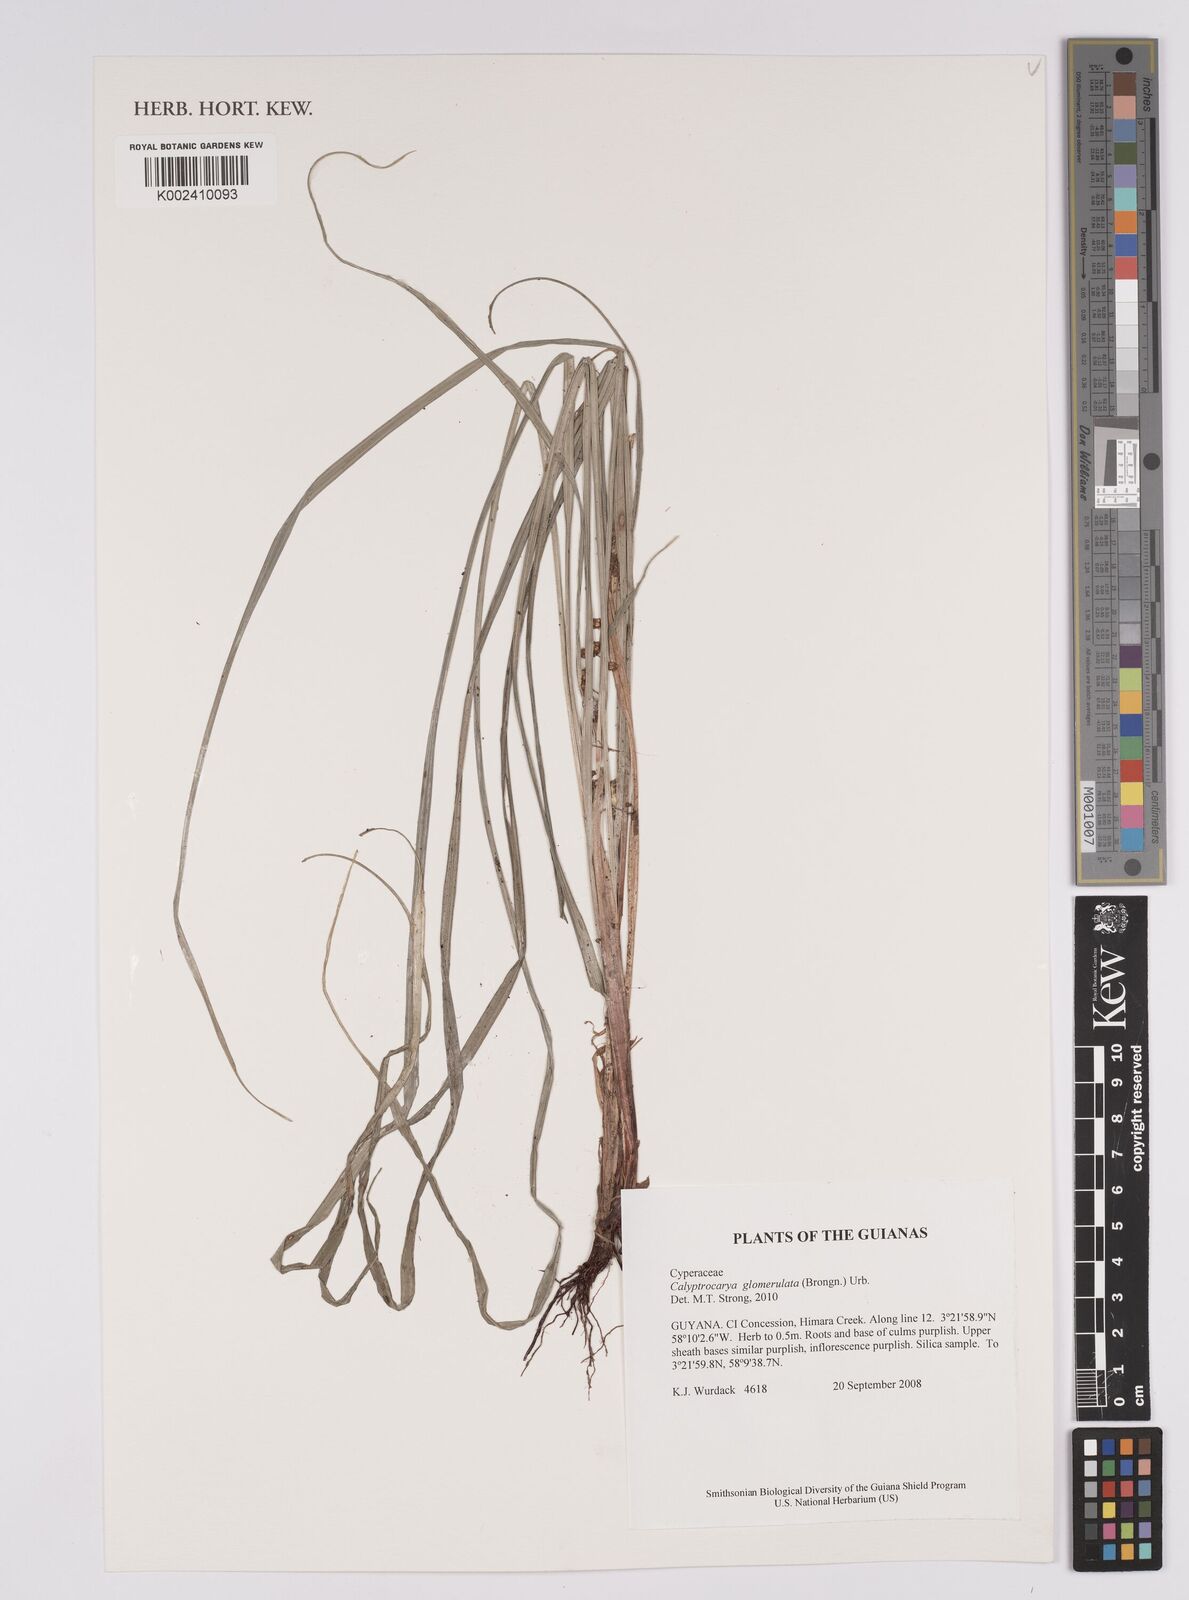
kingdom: Plantae
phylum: Tracheophyta
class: Liliopsida
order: Poales
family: Cyperaceae
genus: Calyptrocarya
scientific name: Calyptrocarya
